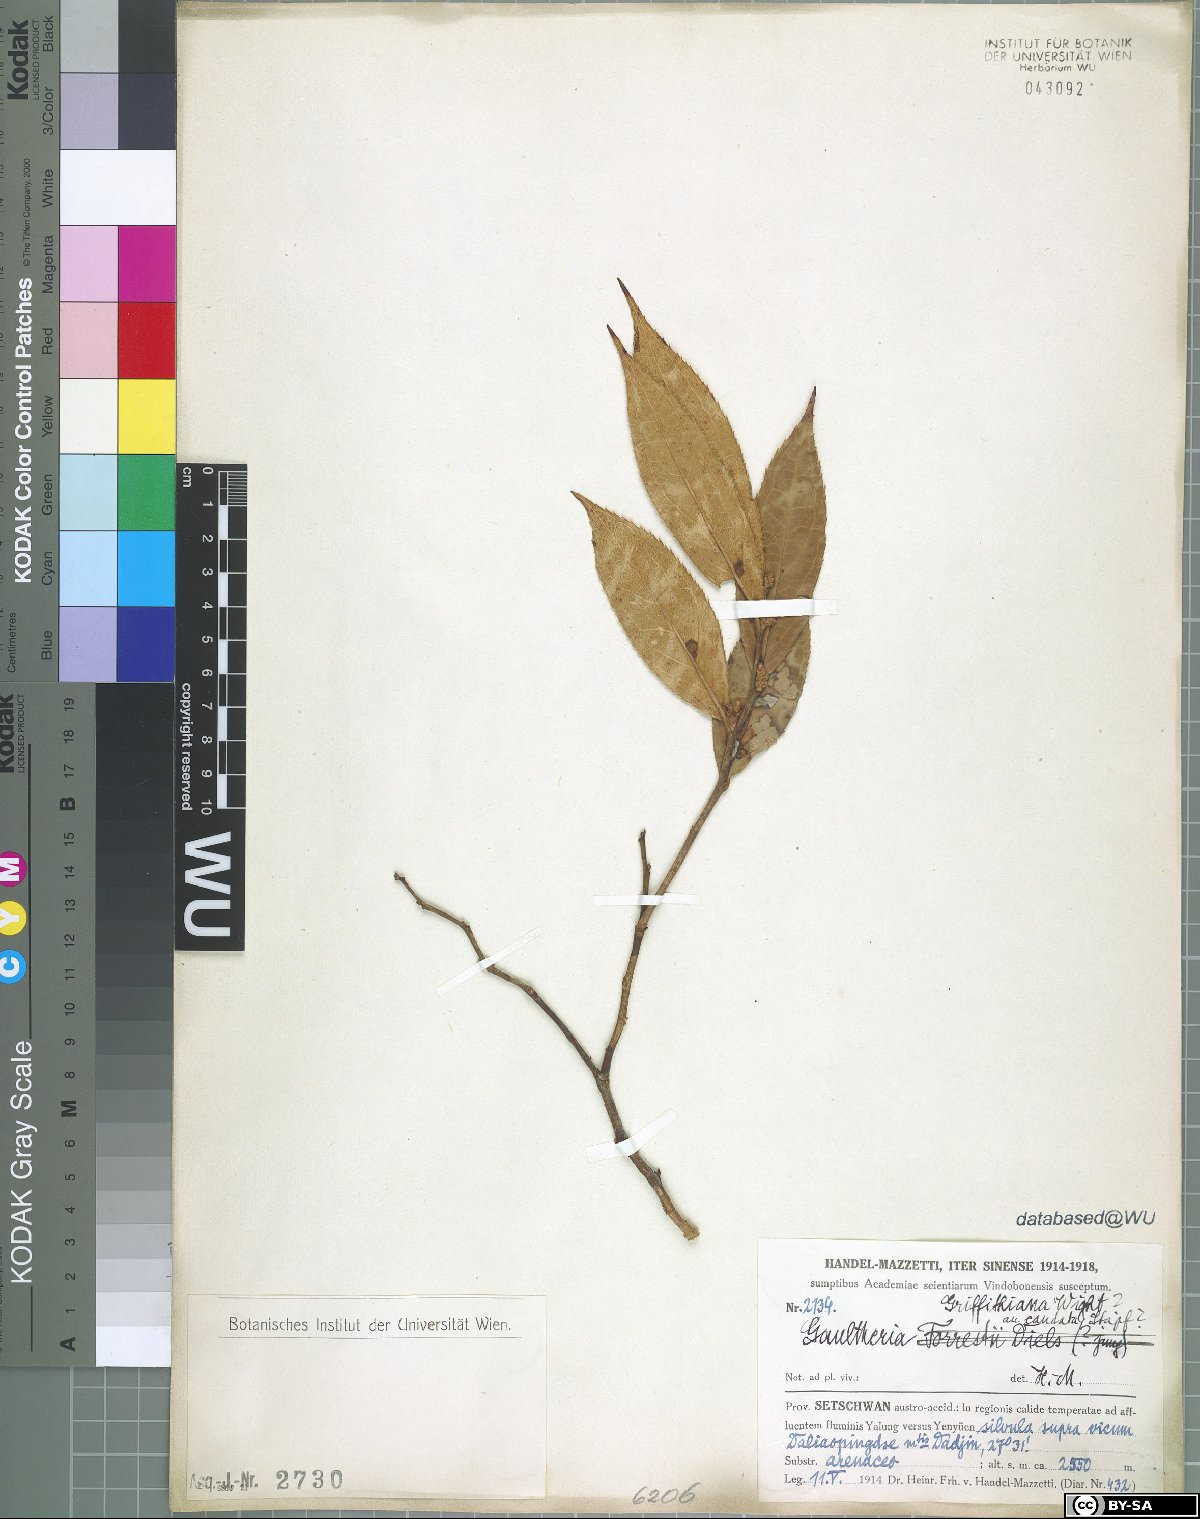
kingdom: Plantae
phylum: Tracheophyta
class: Magnoliopsida
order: Ericales
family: Ericaceae
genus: Gaultheria
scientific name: Gaultheria griffithiana
